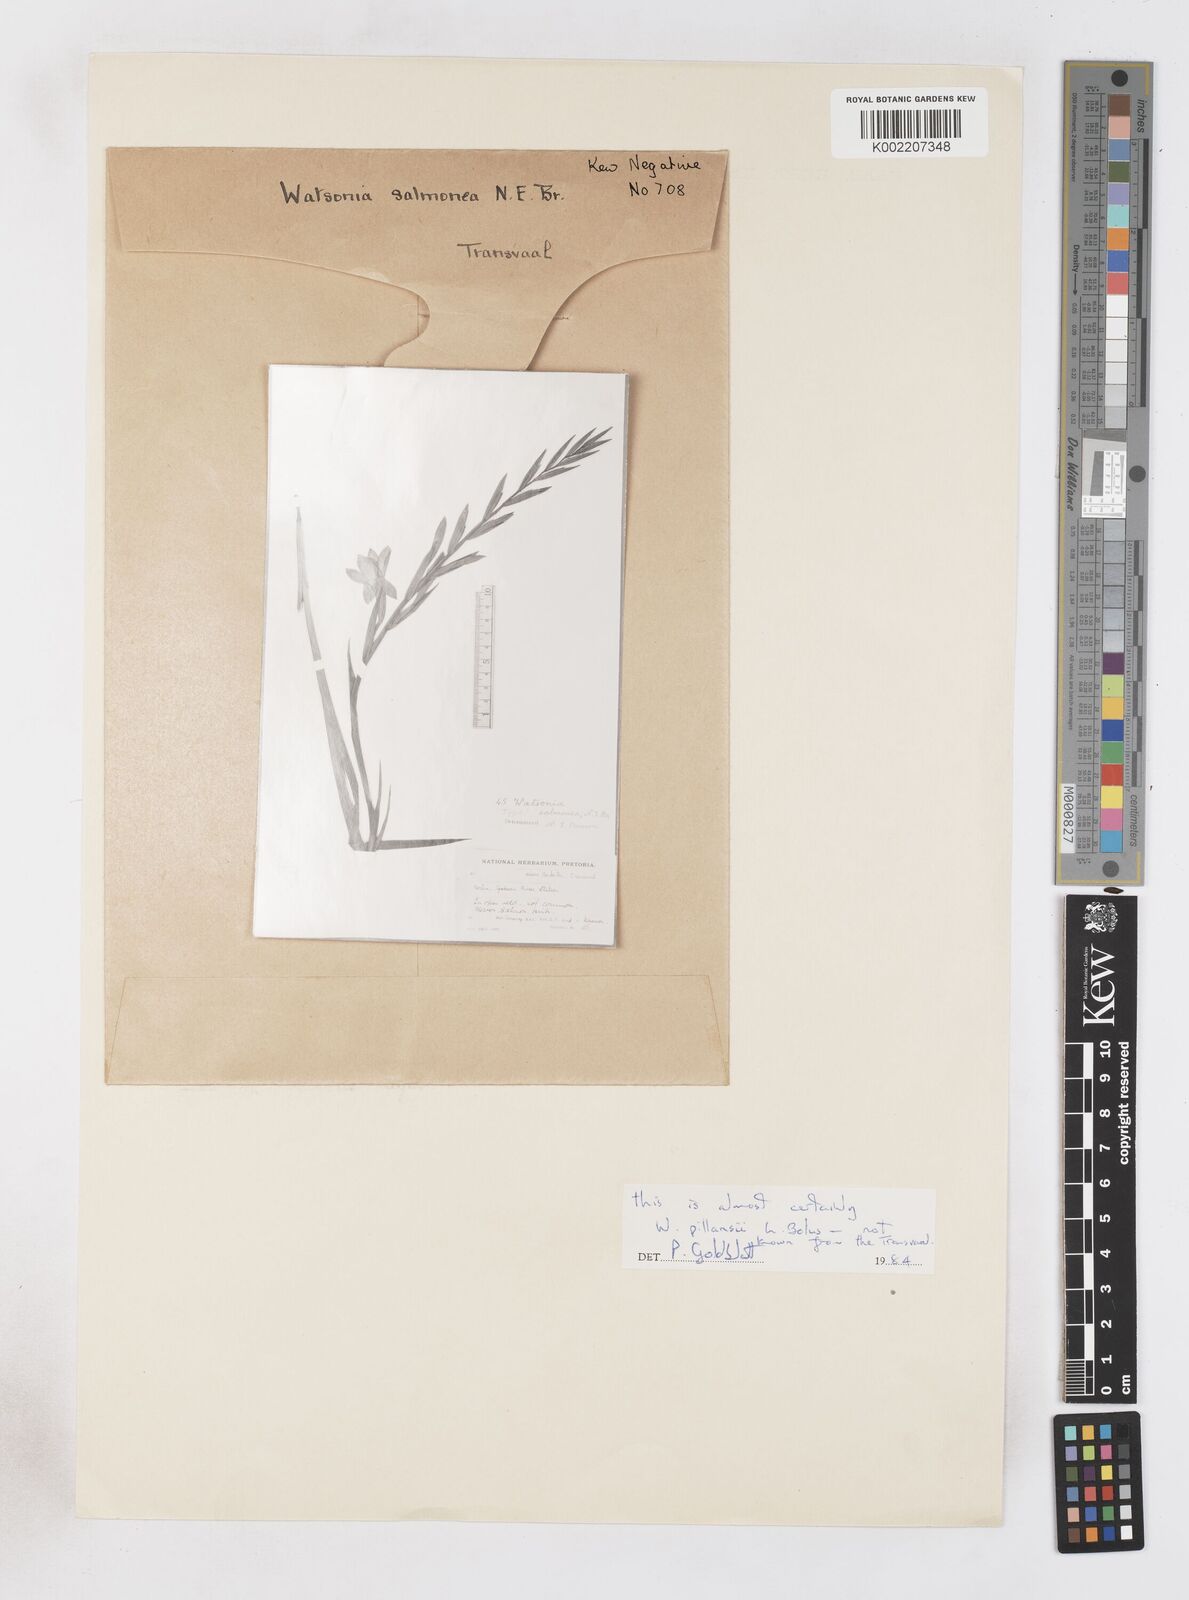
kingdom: Plantae
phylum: Tracheophyta
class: Liliopsida
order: Asparagales
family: Iridaceae
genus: Watsonia
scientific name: Watsonia pillansii
